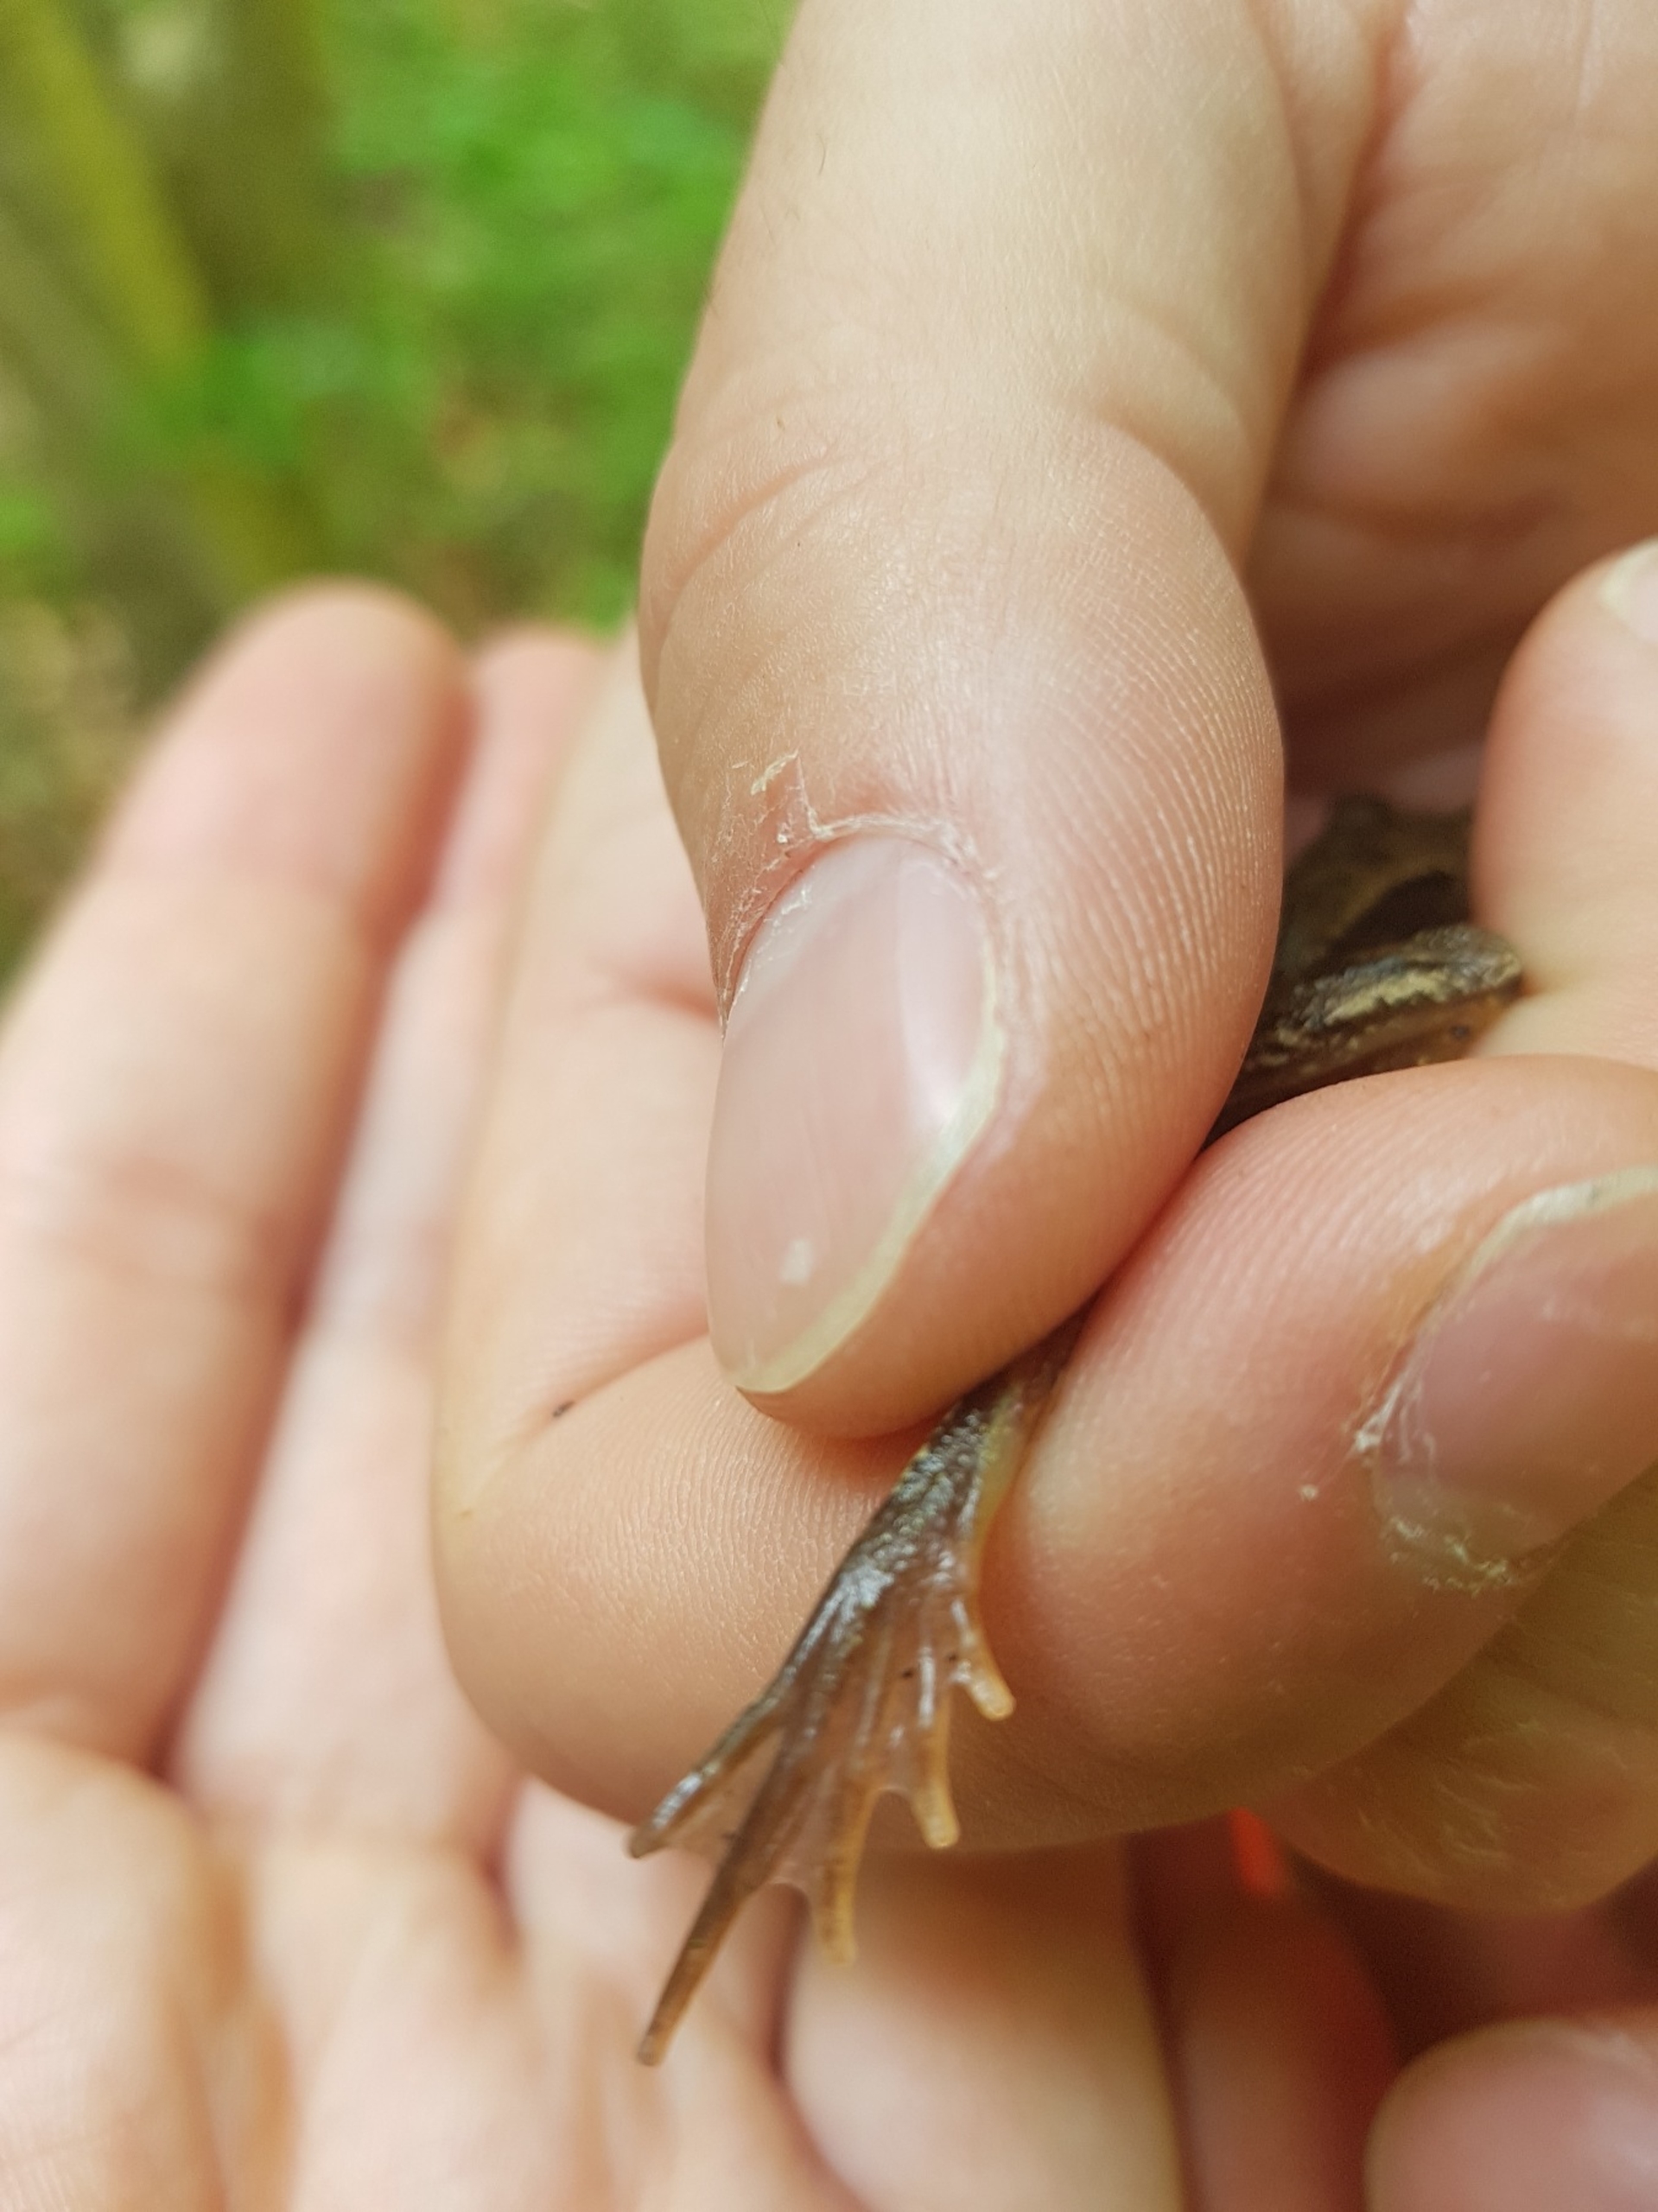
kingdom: Animalia
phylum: Chordata
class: Amphibia
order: Anura
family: Ranidae
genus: Rana
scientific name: Rana temporaria
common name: Butsnudet frø
